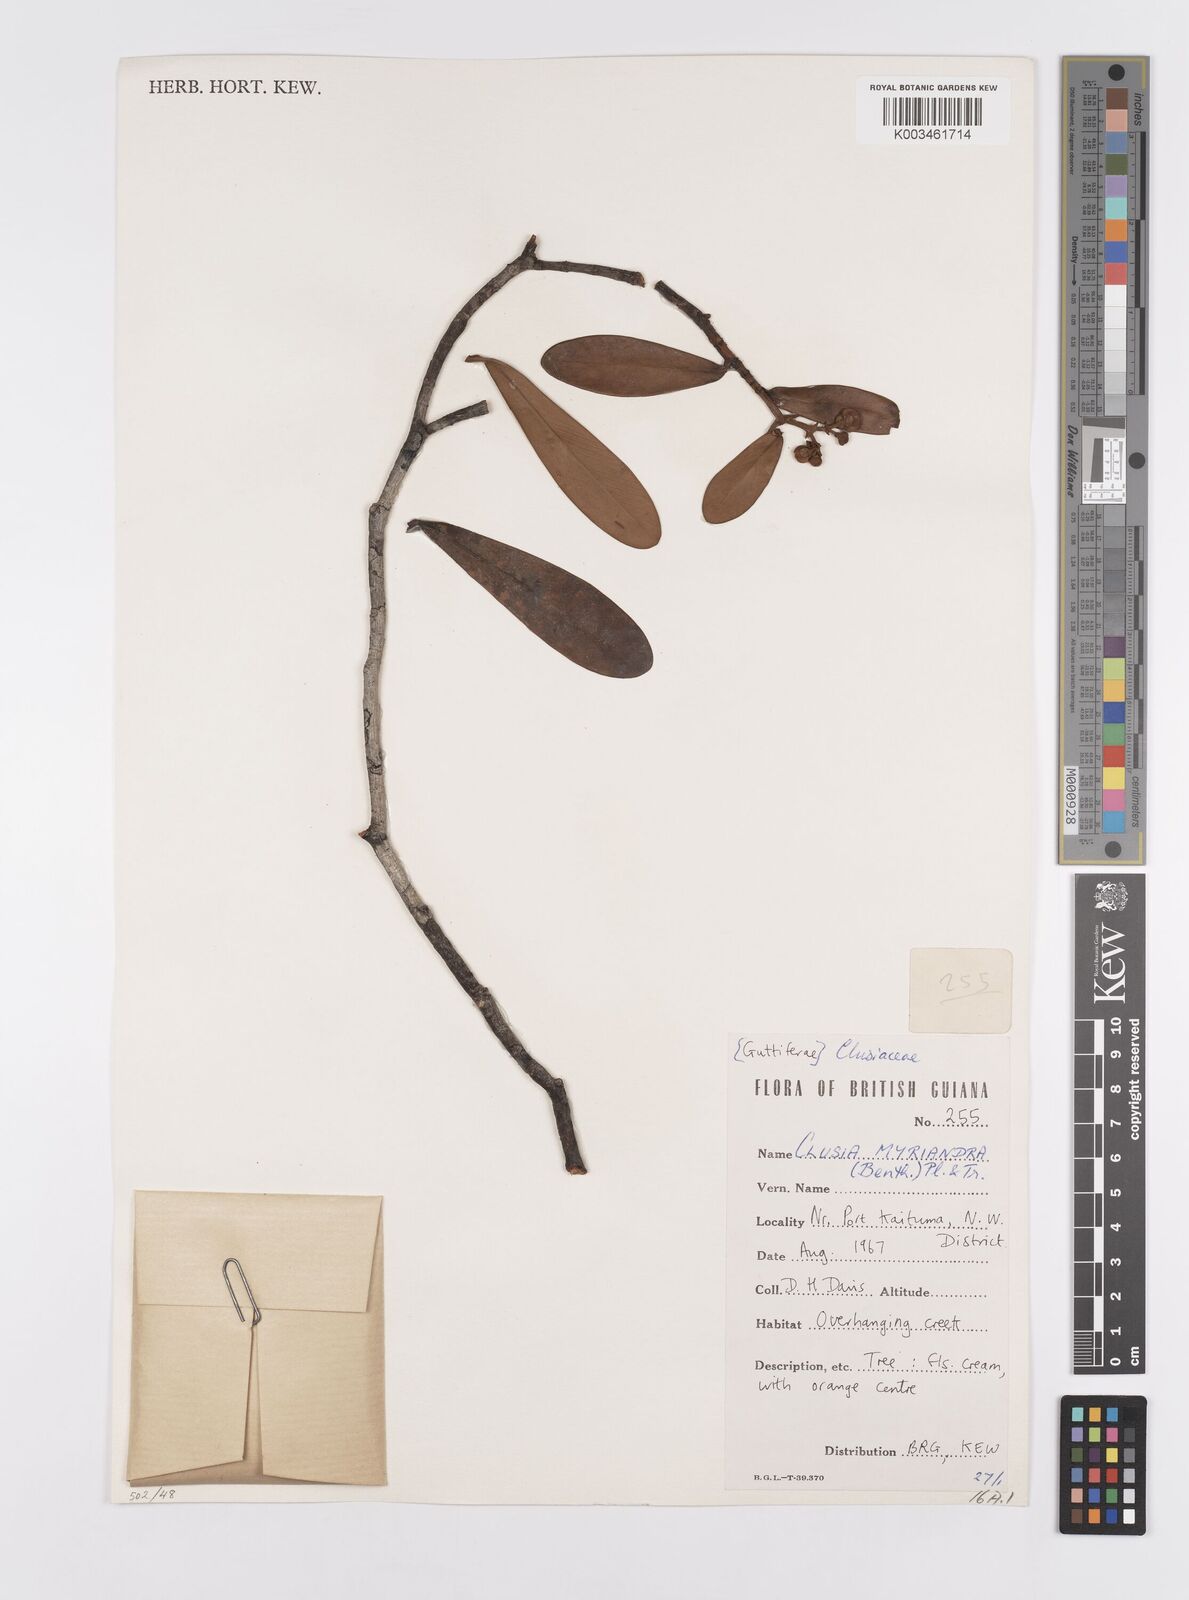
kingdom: Plantae
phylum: Tracheophyta
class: Magnoliopsida
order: Malpighiales
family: Clusiaceae
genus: Clusia
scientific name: Clusia myriandra
